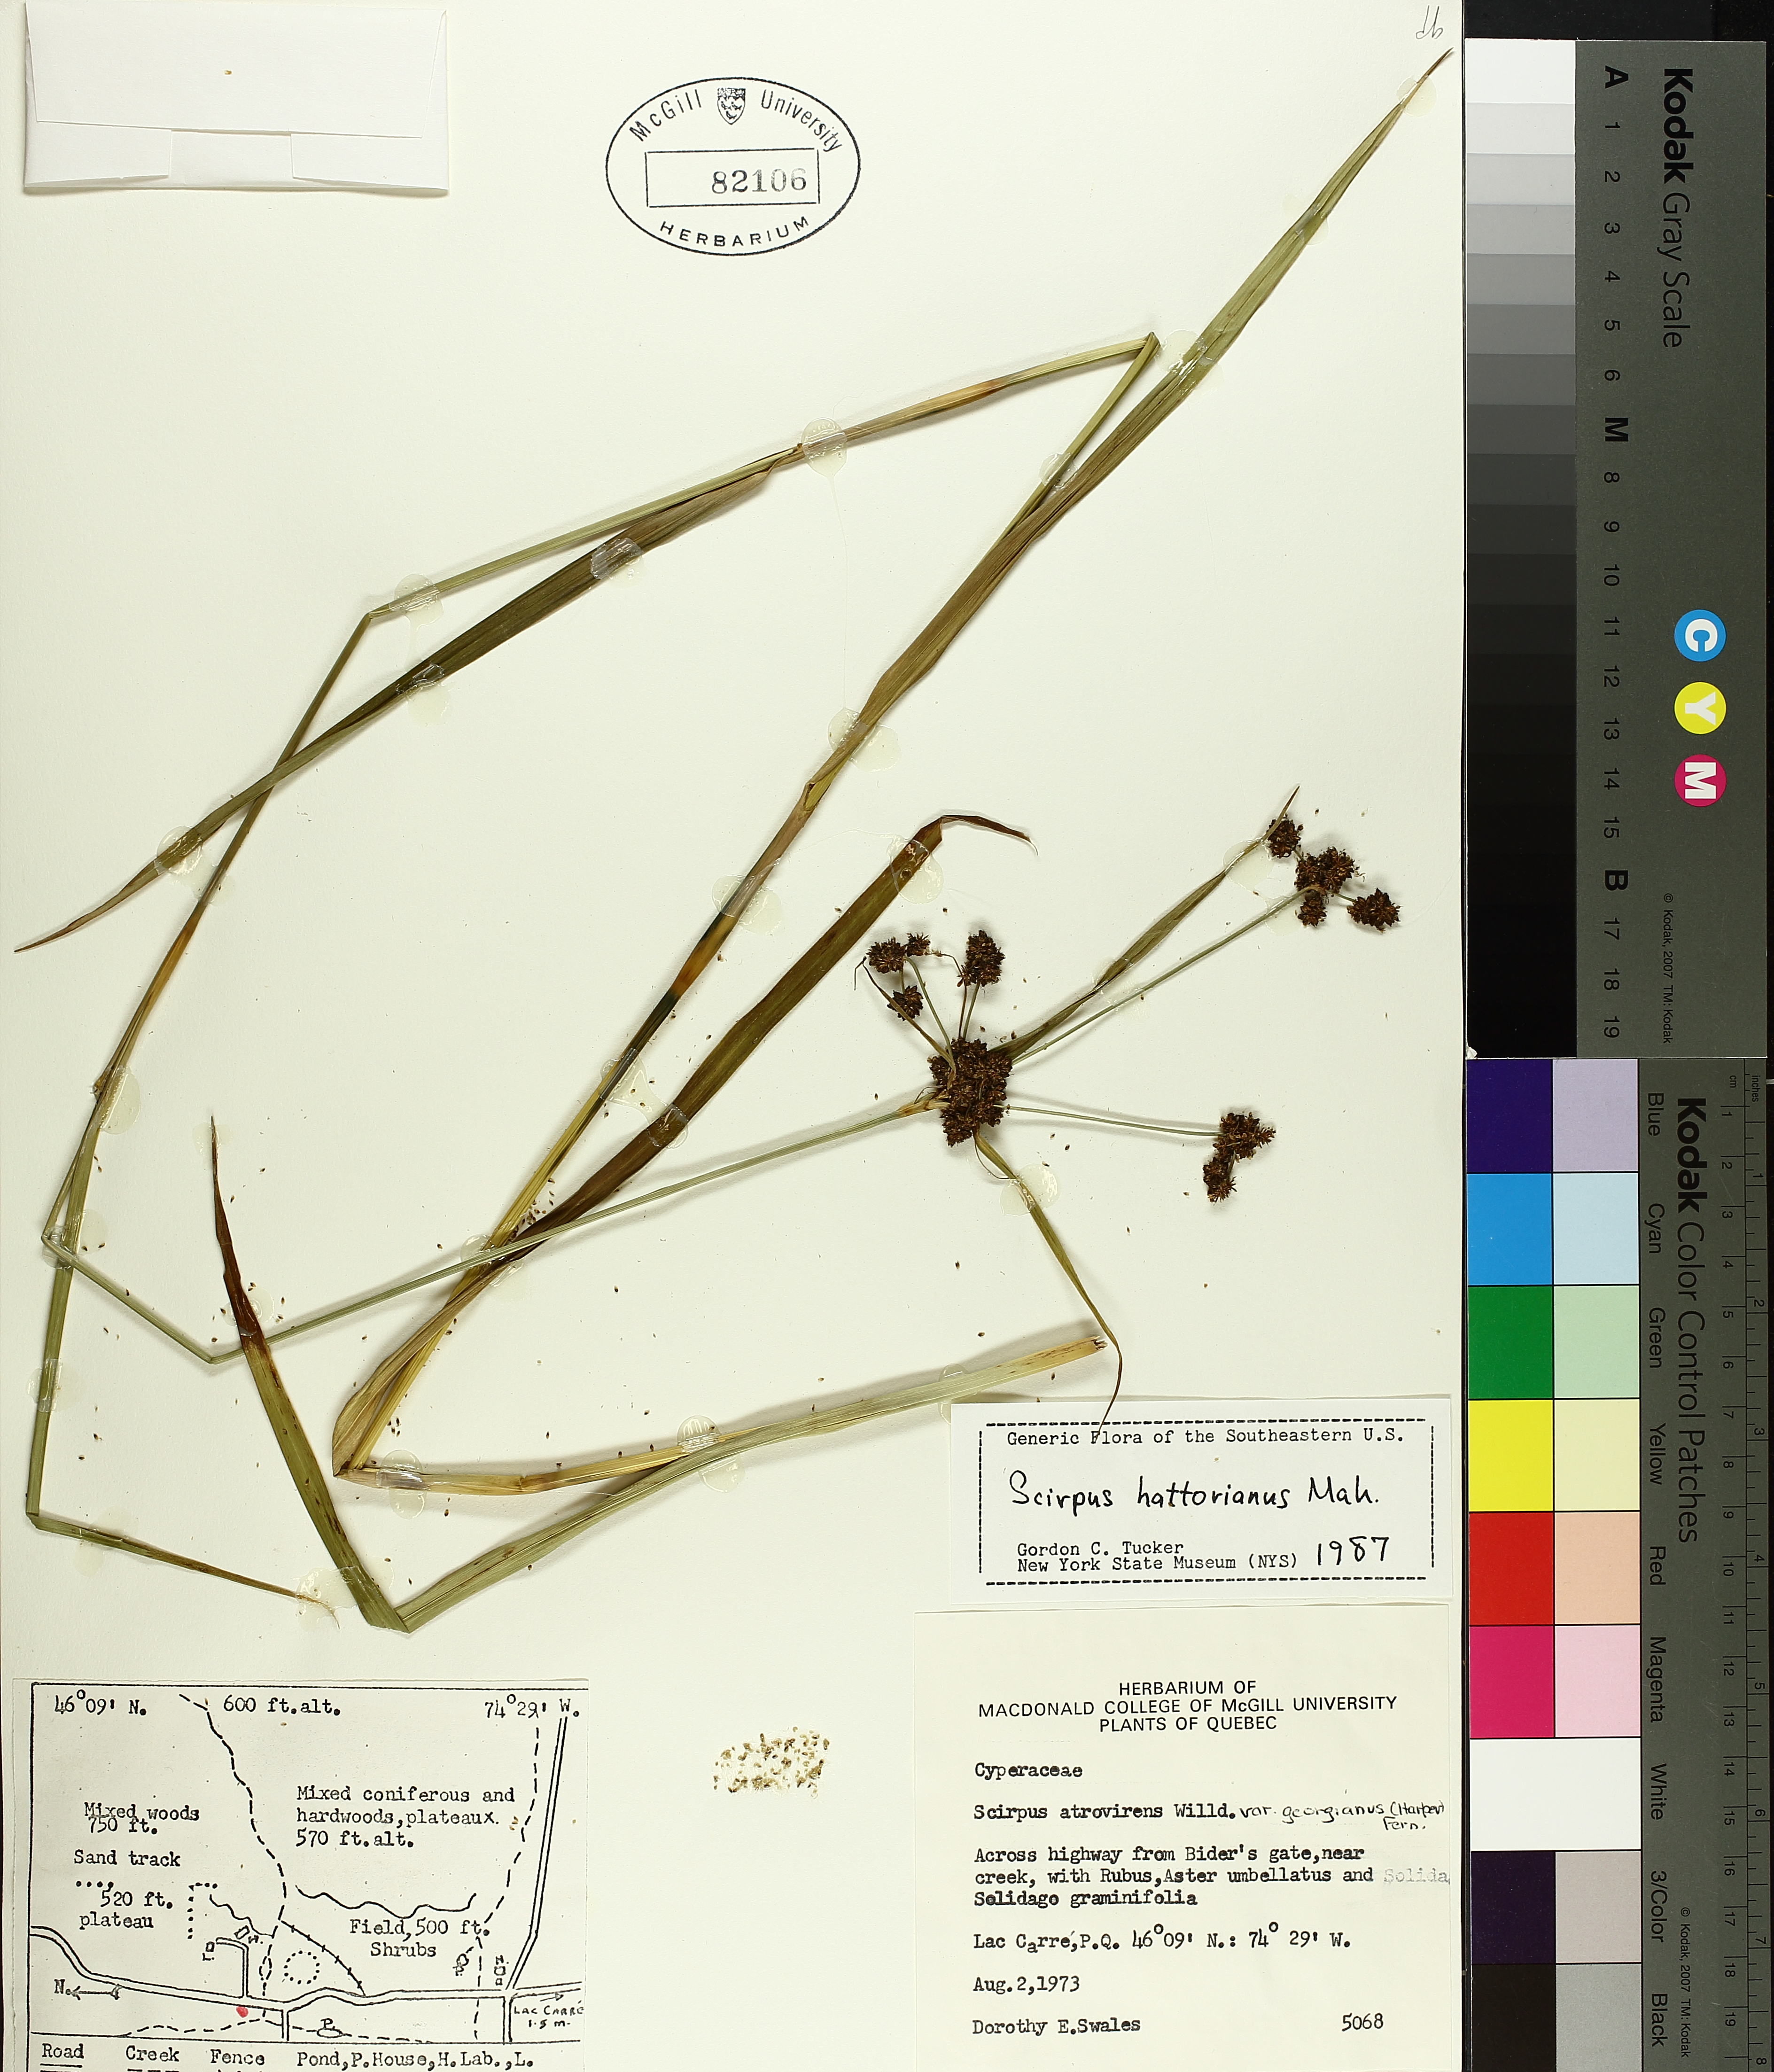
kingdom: Plantae
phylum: Tracheophyta
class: Liliopsida
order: Poales
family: Cyperaceae
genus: Scirpus
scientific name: Scirpus hattorianus
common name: Early dark-green bulrush
